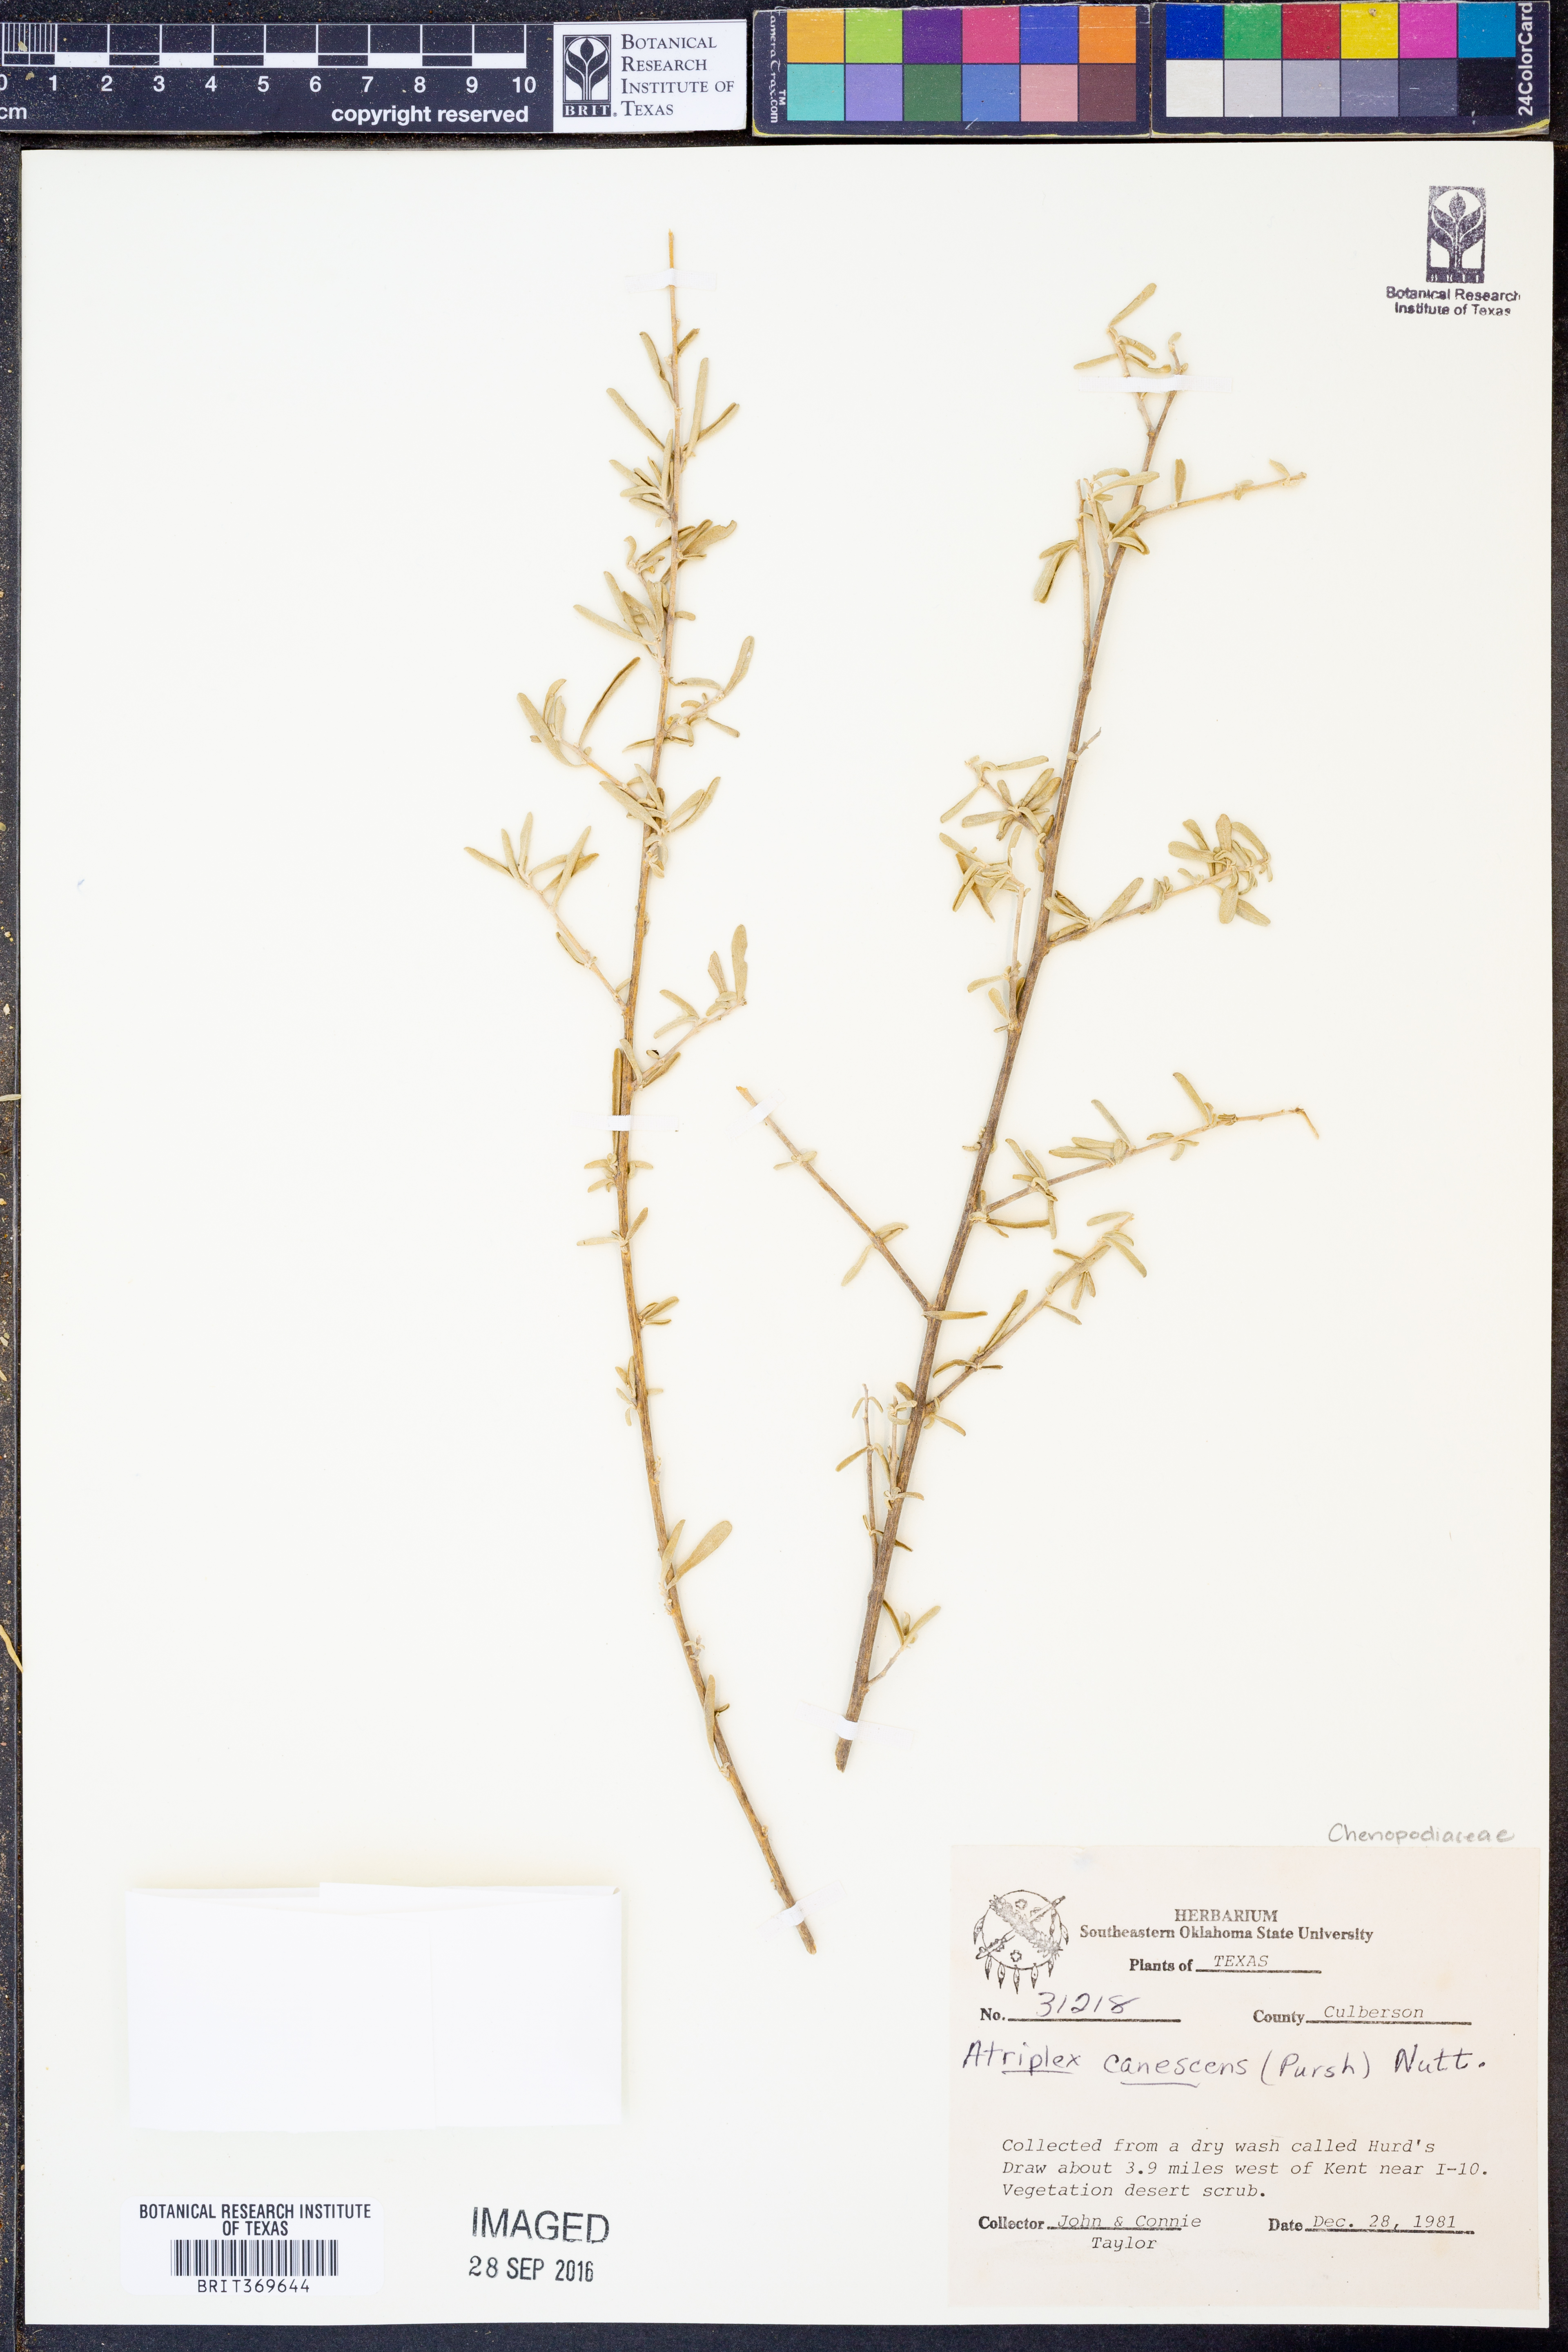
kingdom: Plantae
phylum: Tracheophyta
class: Magnoliopsida
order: Caryophyllales
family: Amaranthaceae
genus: Atriplex
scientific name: Atriplex canescens
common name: Four-wing saltbush
